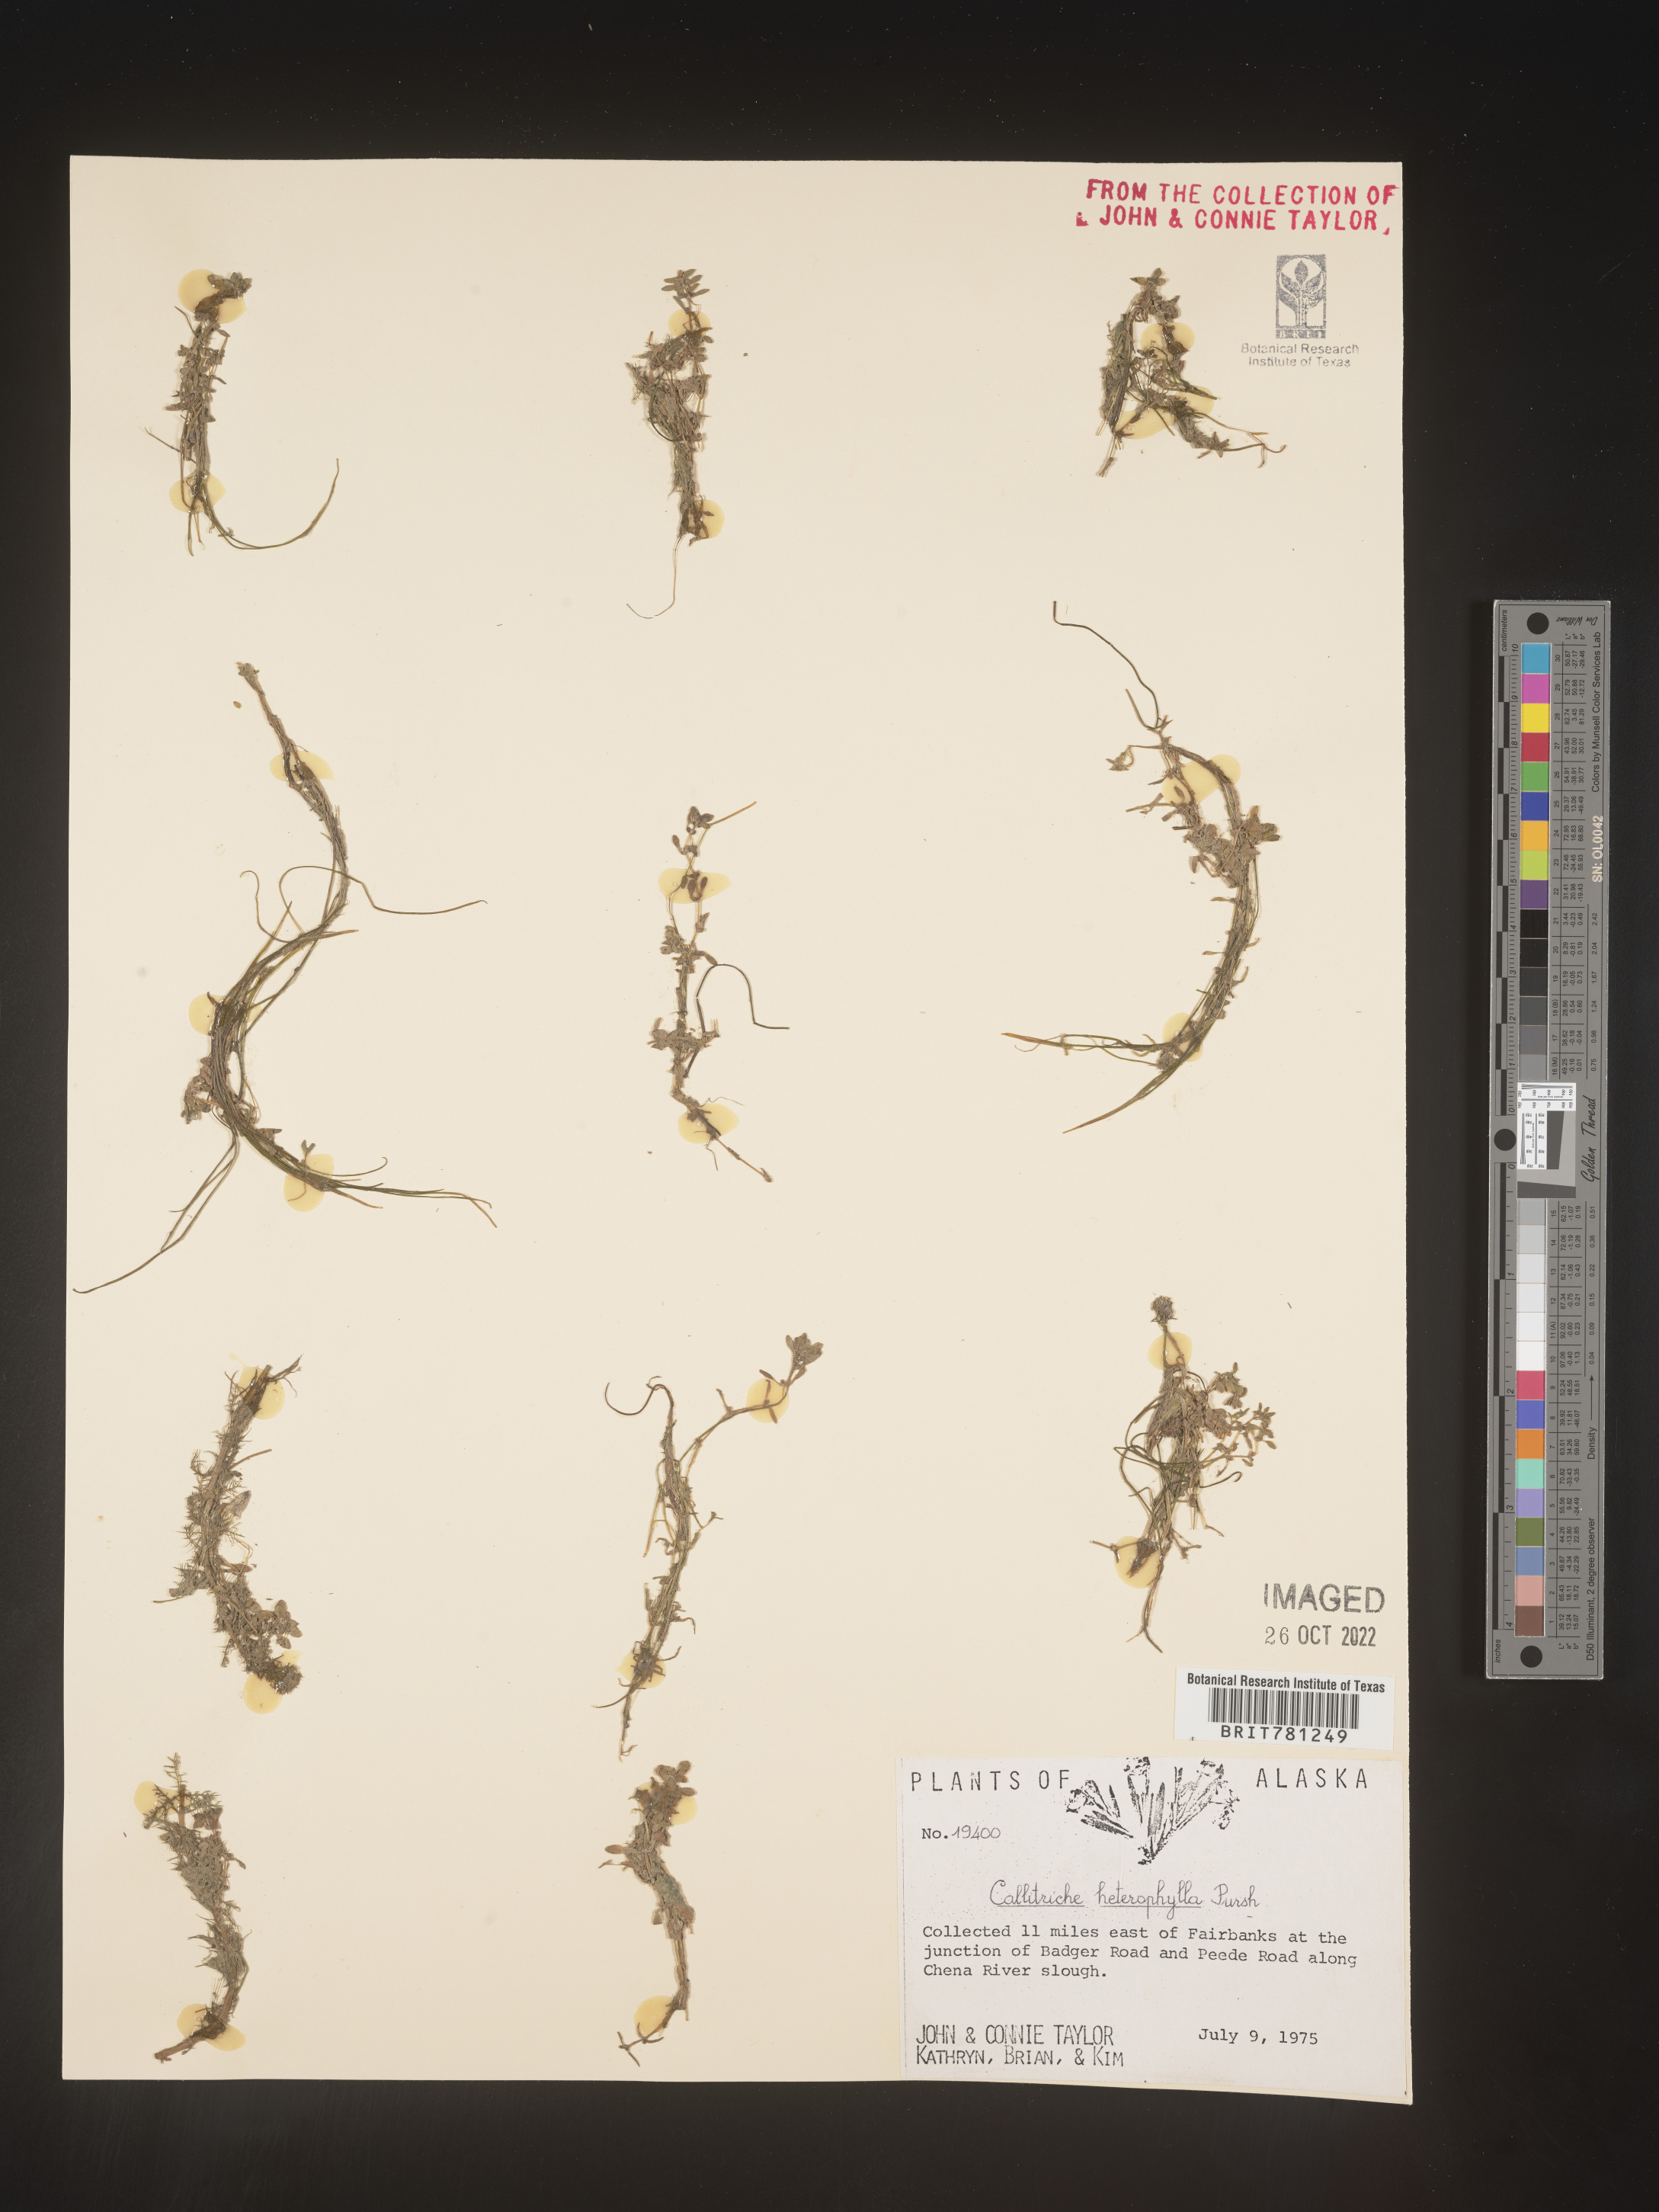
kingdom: Plantae
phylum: Tracheophyta
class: Magnoliopsida
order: Lamiales
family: Plantaginaceae
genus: Callitriche
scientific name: Callitriche heterophylla
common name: Two-headed water-starwort
